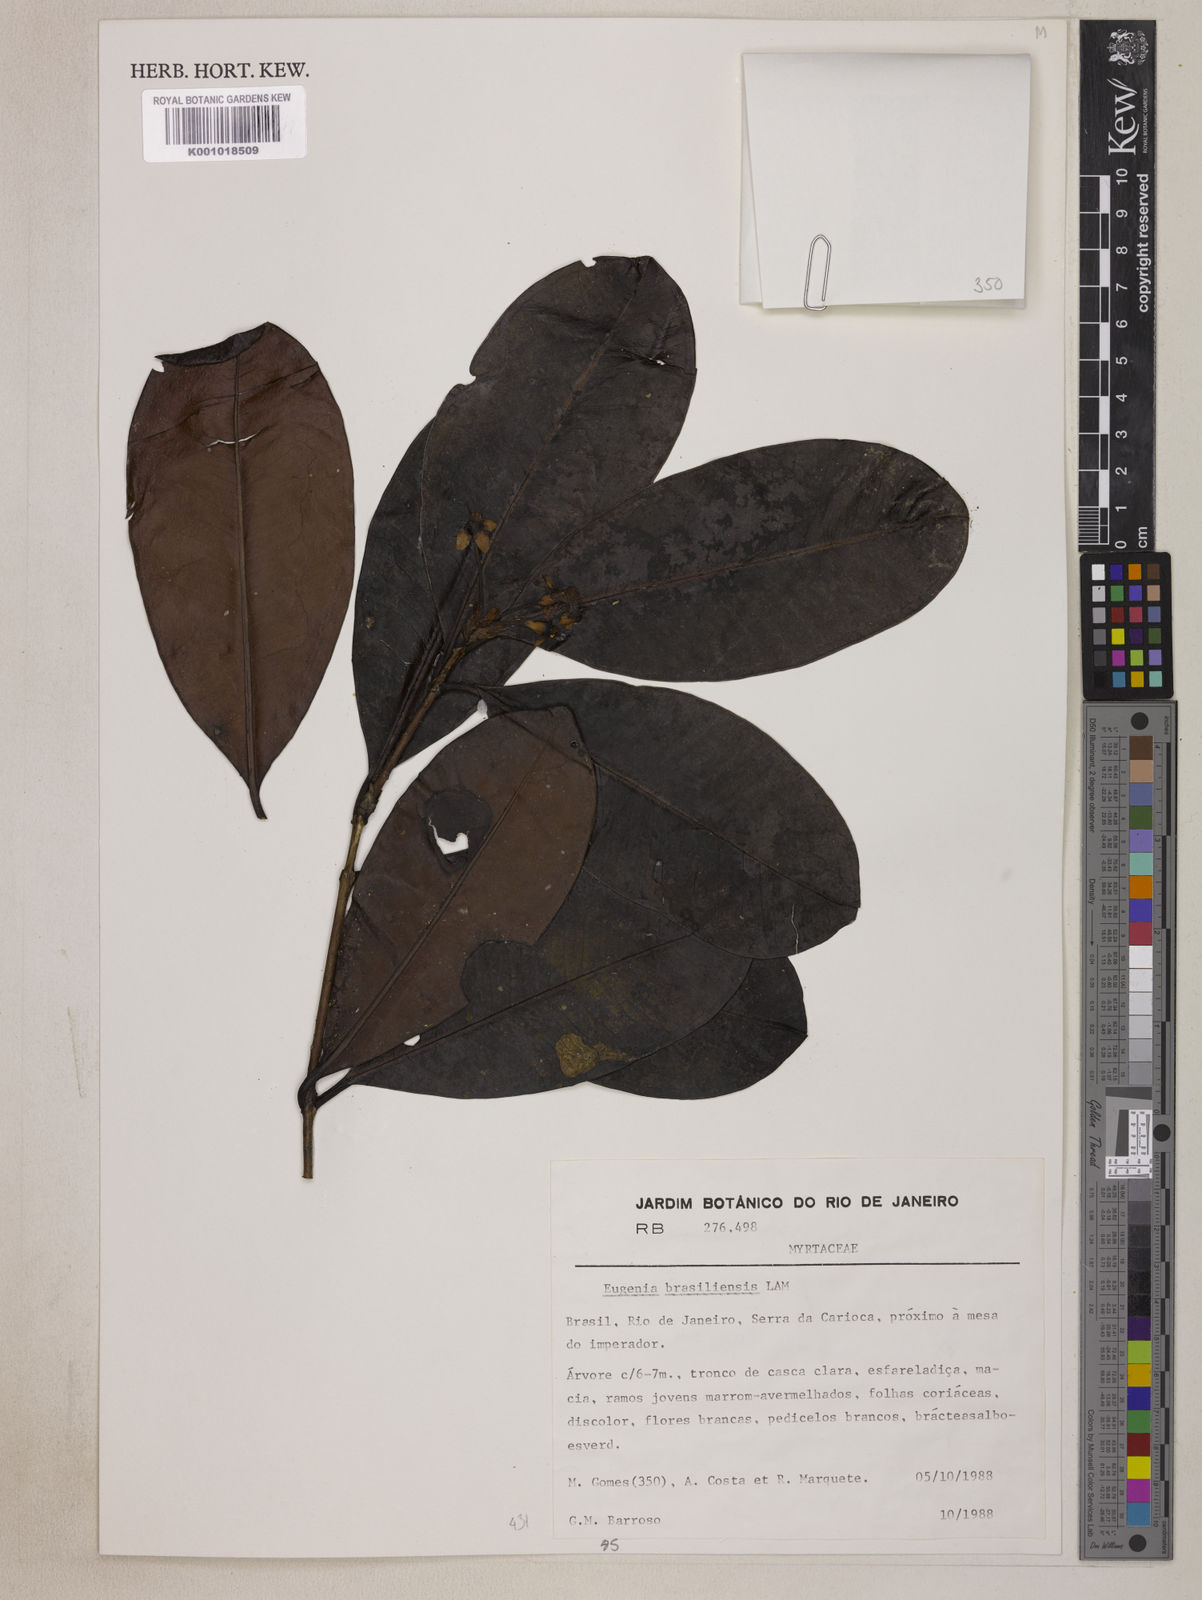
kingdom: Plantae
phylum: Tracheophyta
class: Magnoliopsida
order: Myrtales
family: Myrtaceae
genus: Eugenia
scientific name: Eugenia brasiliensis
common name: Grumichama
